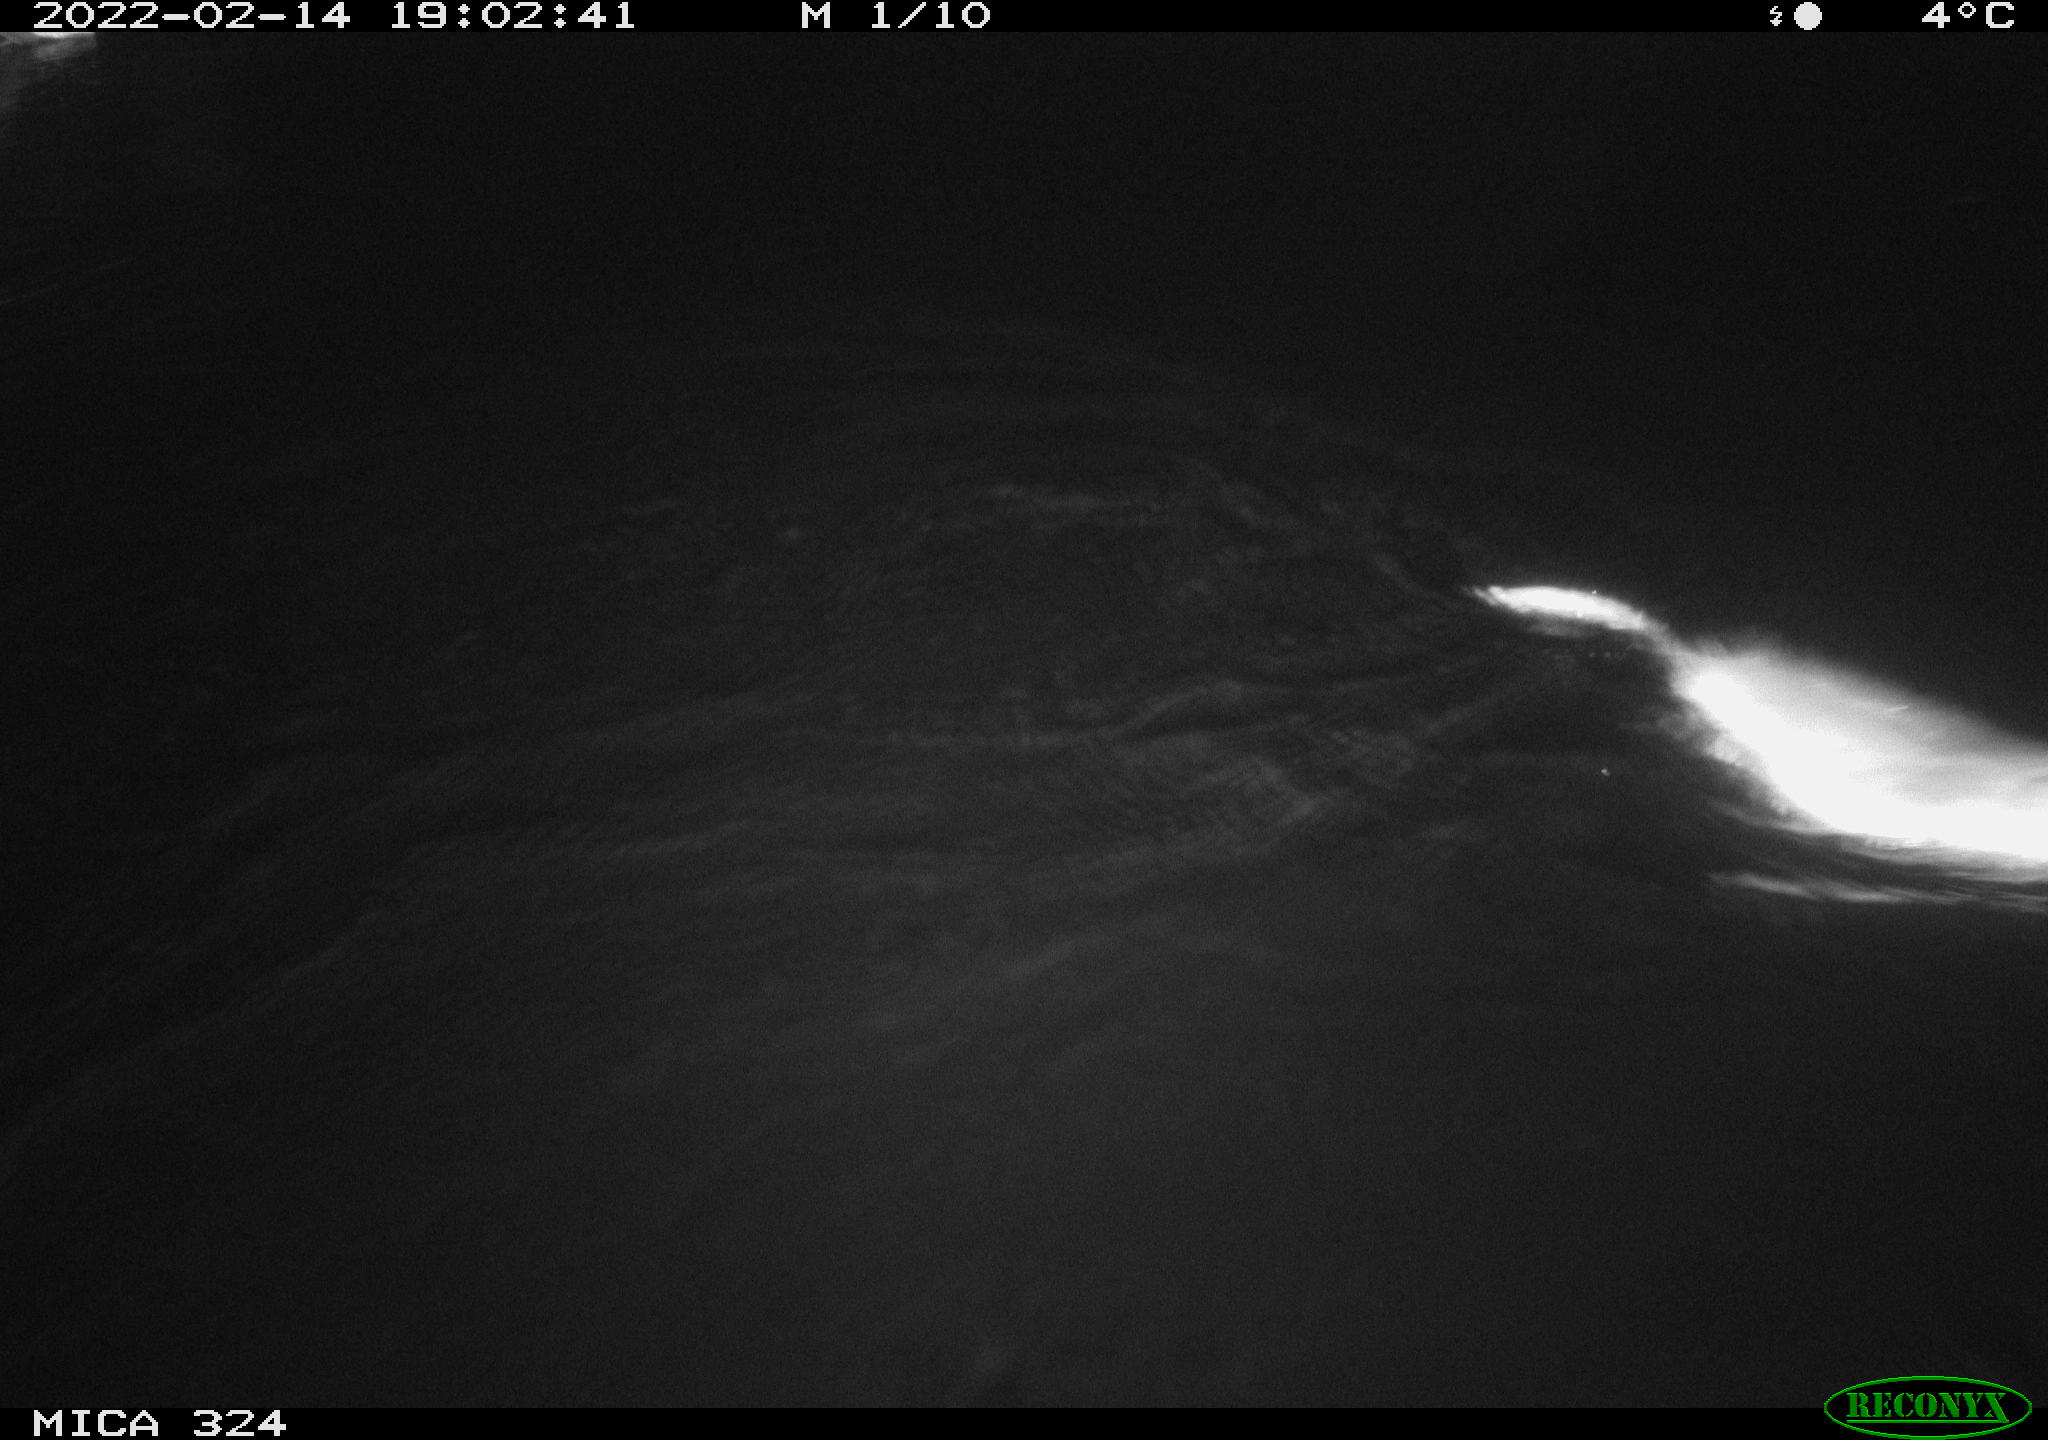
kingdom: Animalia
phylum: Chordata
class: Mammalia
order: Rodentia
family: Cricetidae
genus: Ondatra
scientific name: Ondatra zibethicus
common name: Muskrat
